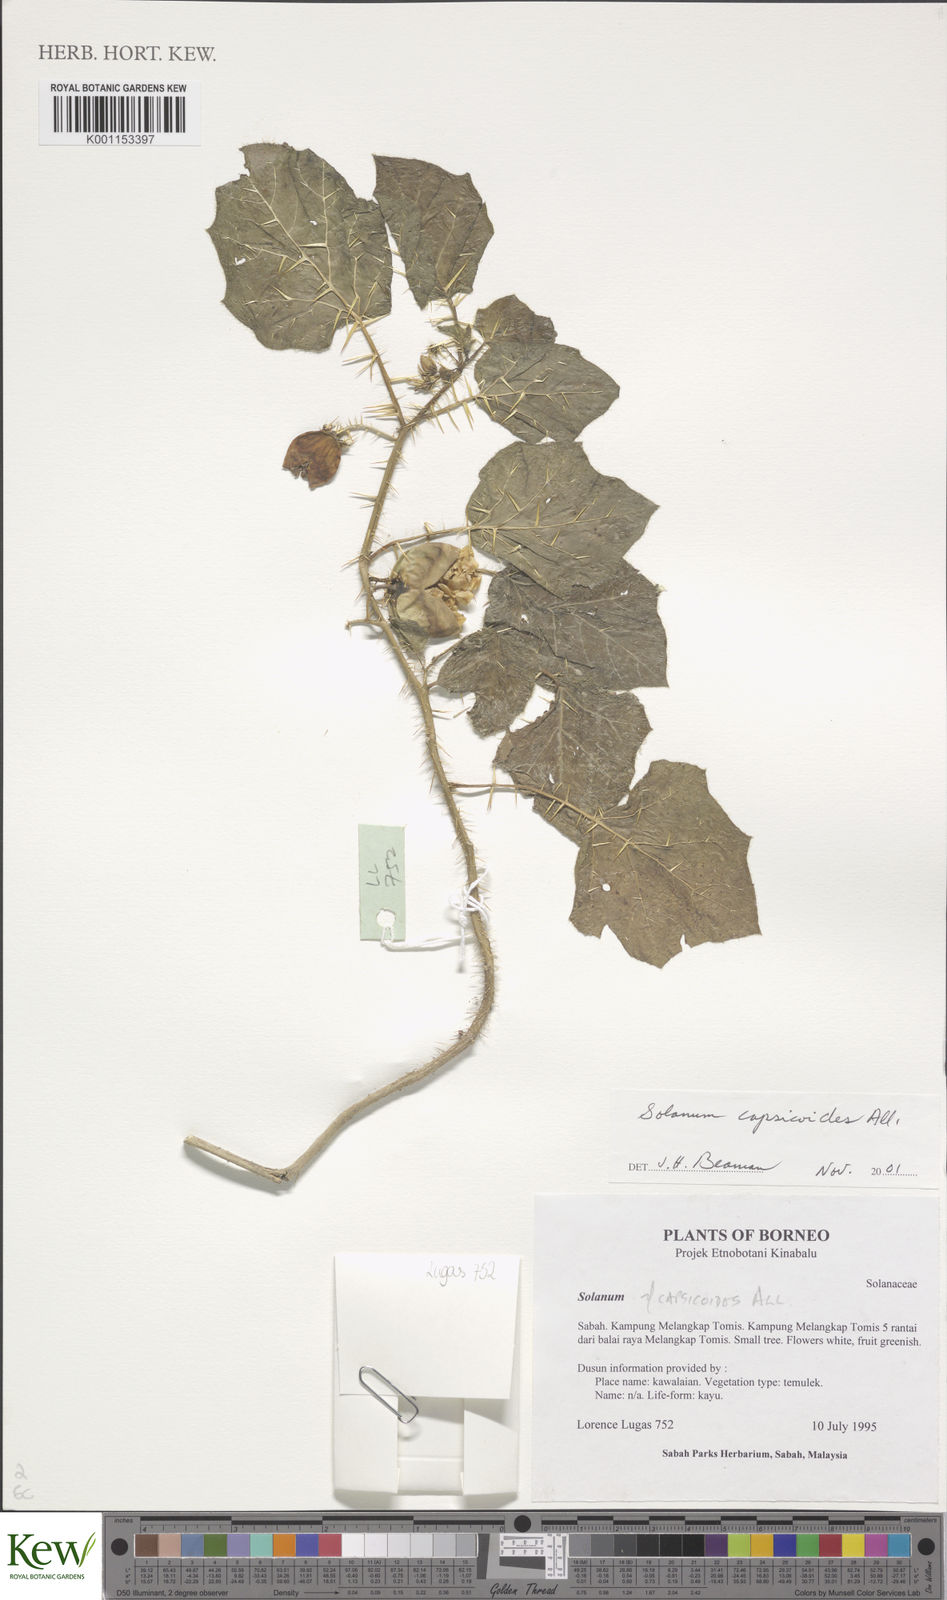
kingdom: Plantae
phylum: Tracheophyta
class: Magnoliopsida
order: Solanales
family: Solanaceae
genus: Solanum
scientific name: Solanum capsicoides
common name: Cockroach berry
